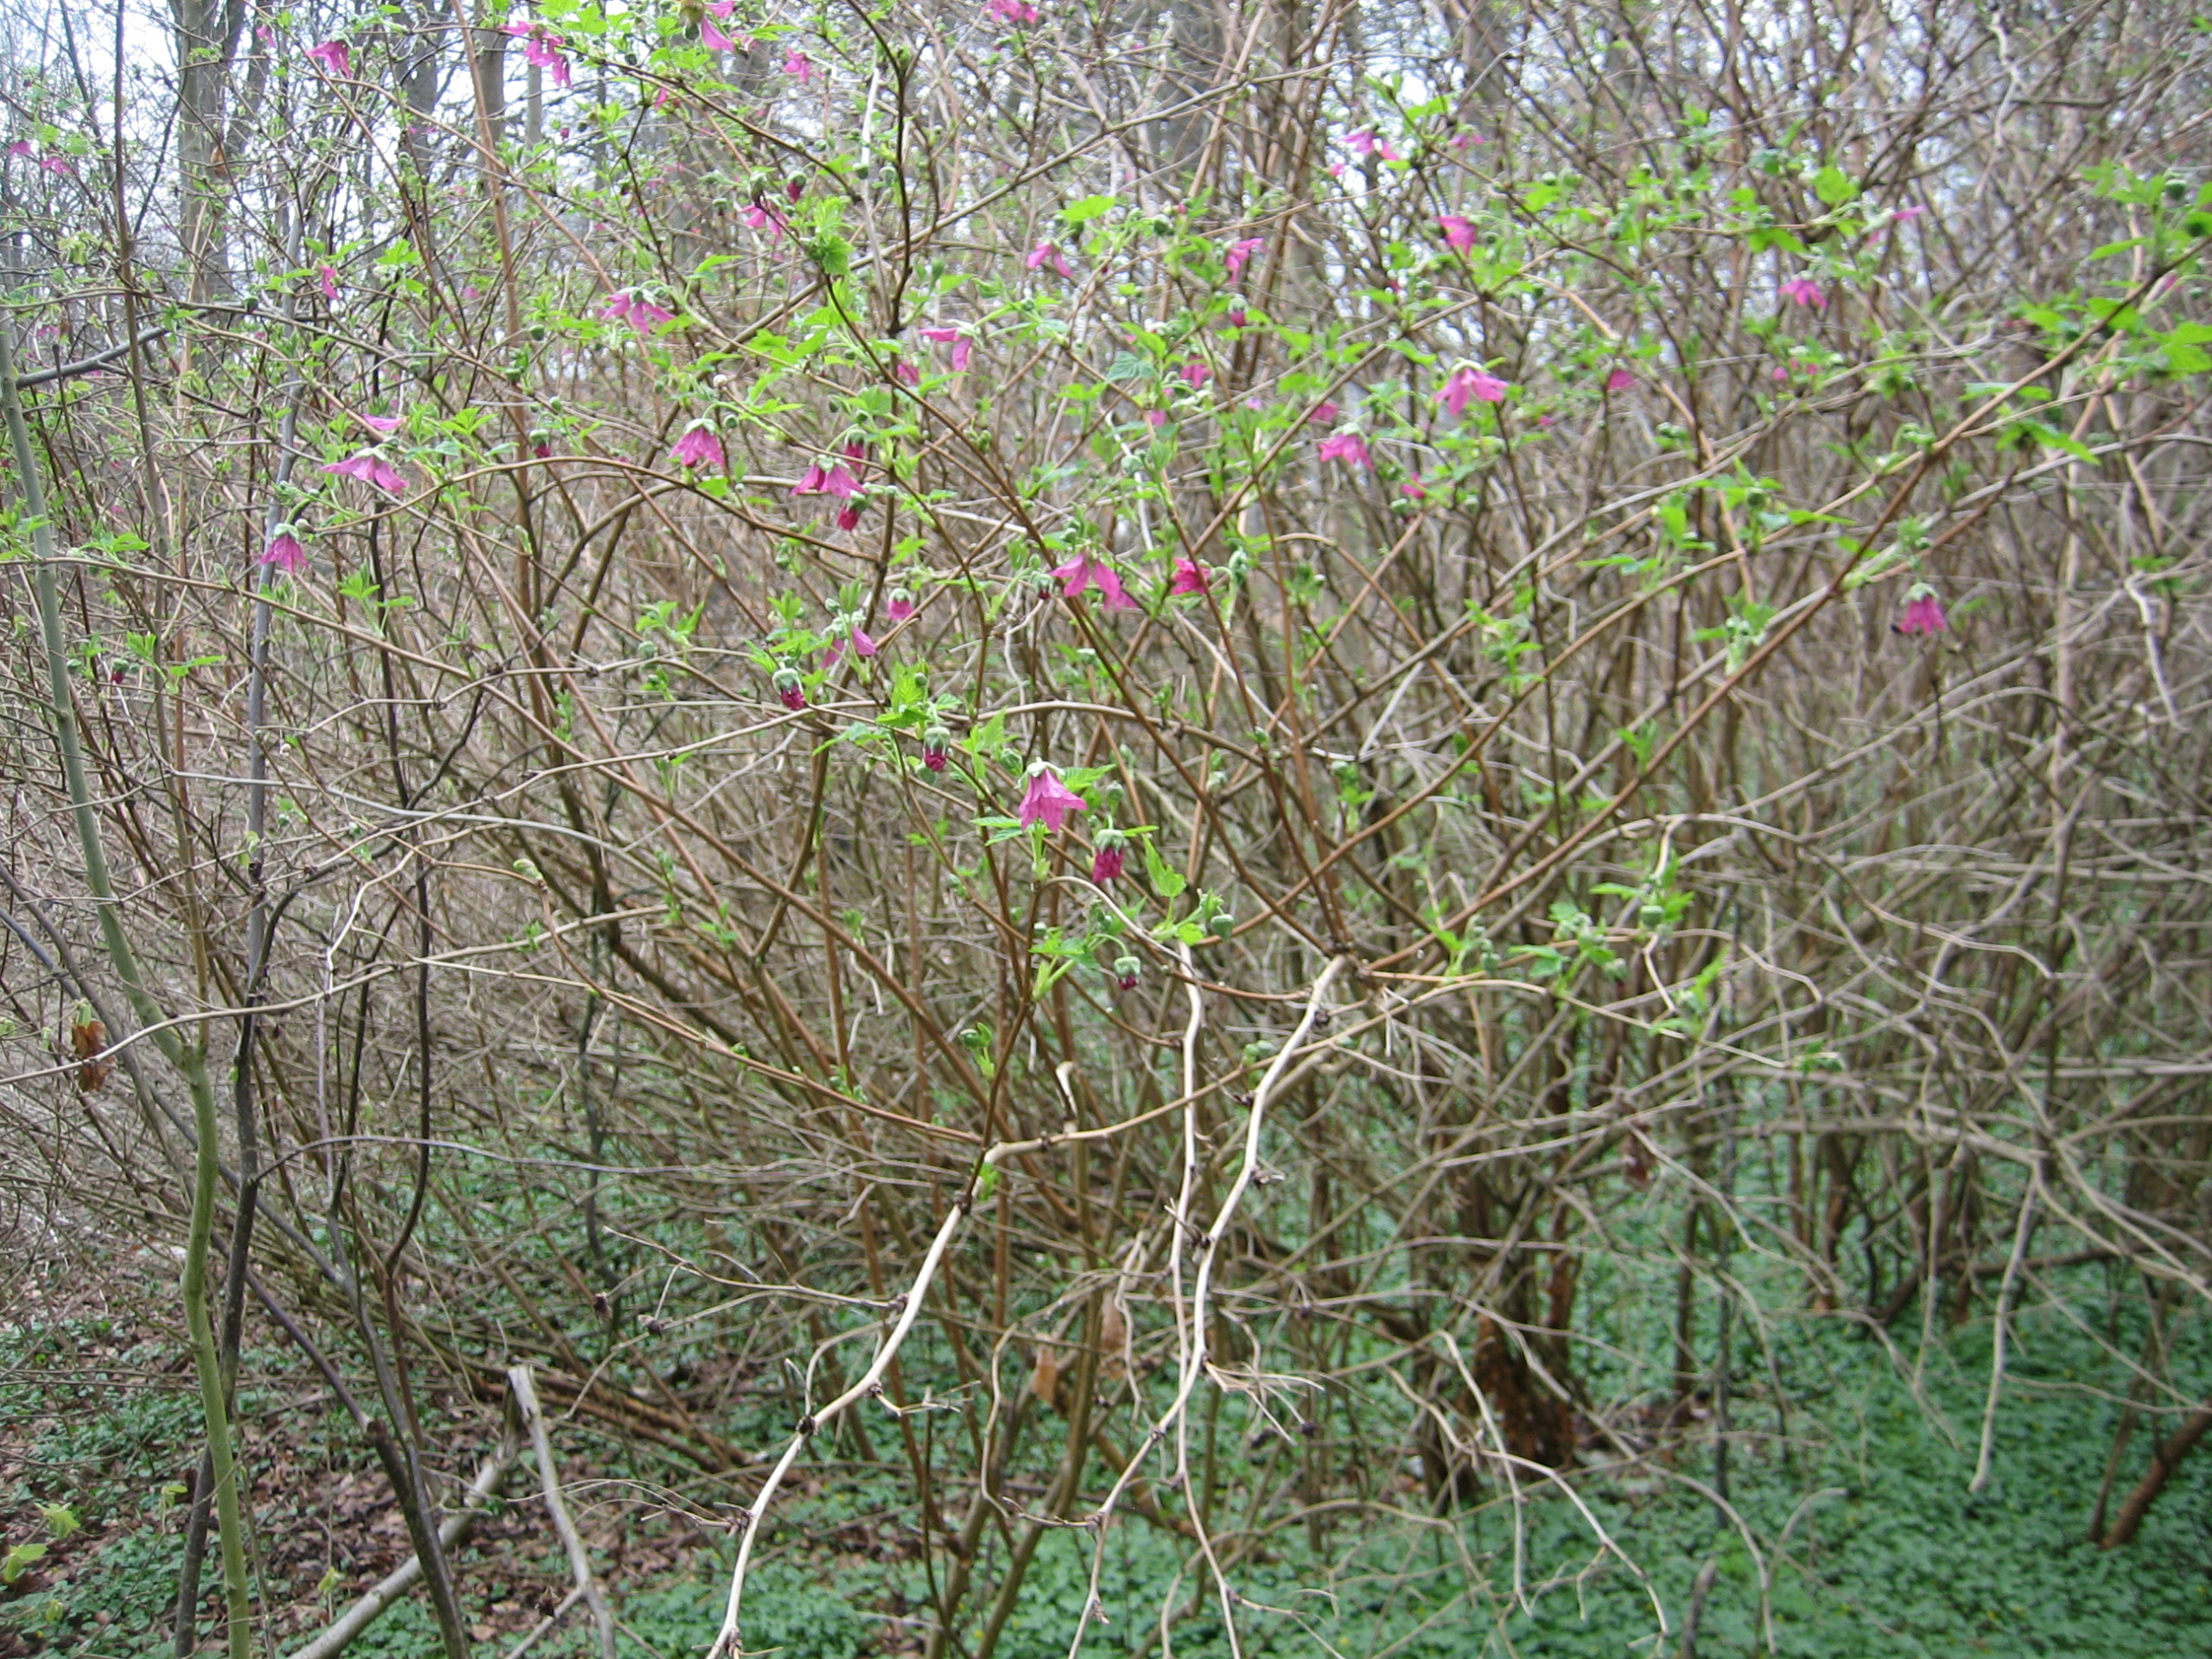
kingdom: Plantae
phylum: Tracheophyta
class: Magnoliopsida
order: Rosales
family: Rosaceae
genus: Rubus
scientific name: Rubus spectabilis
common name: Laksebær
